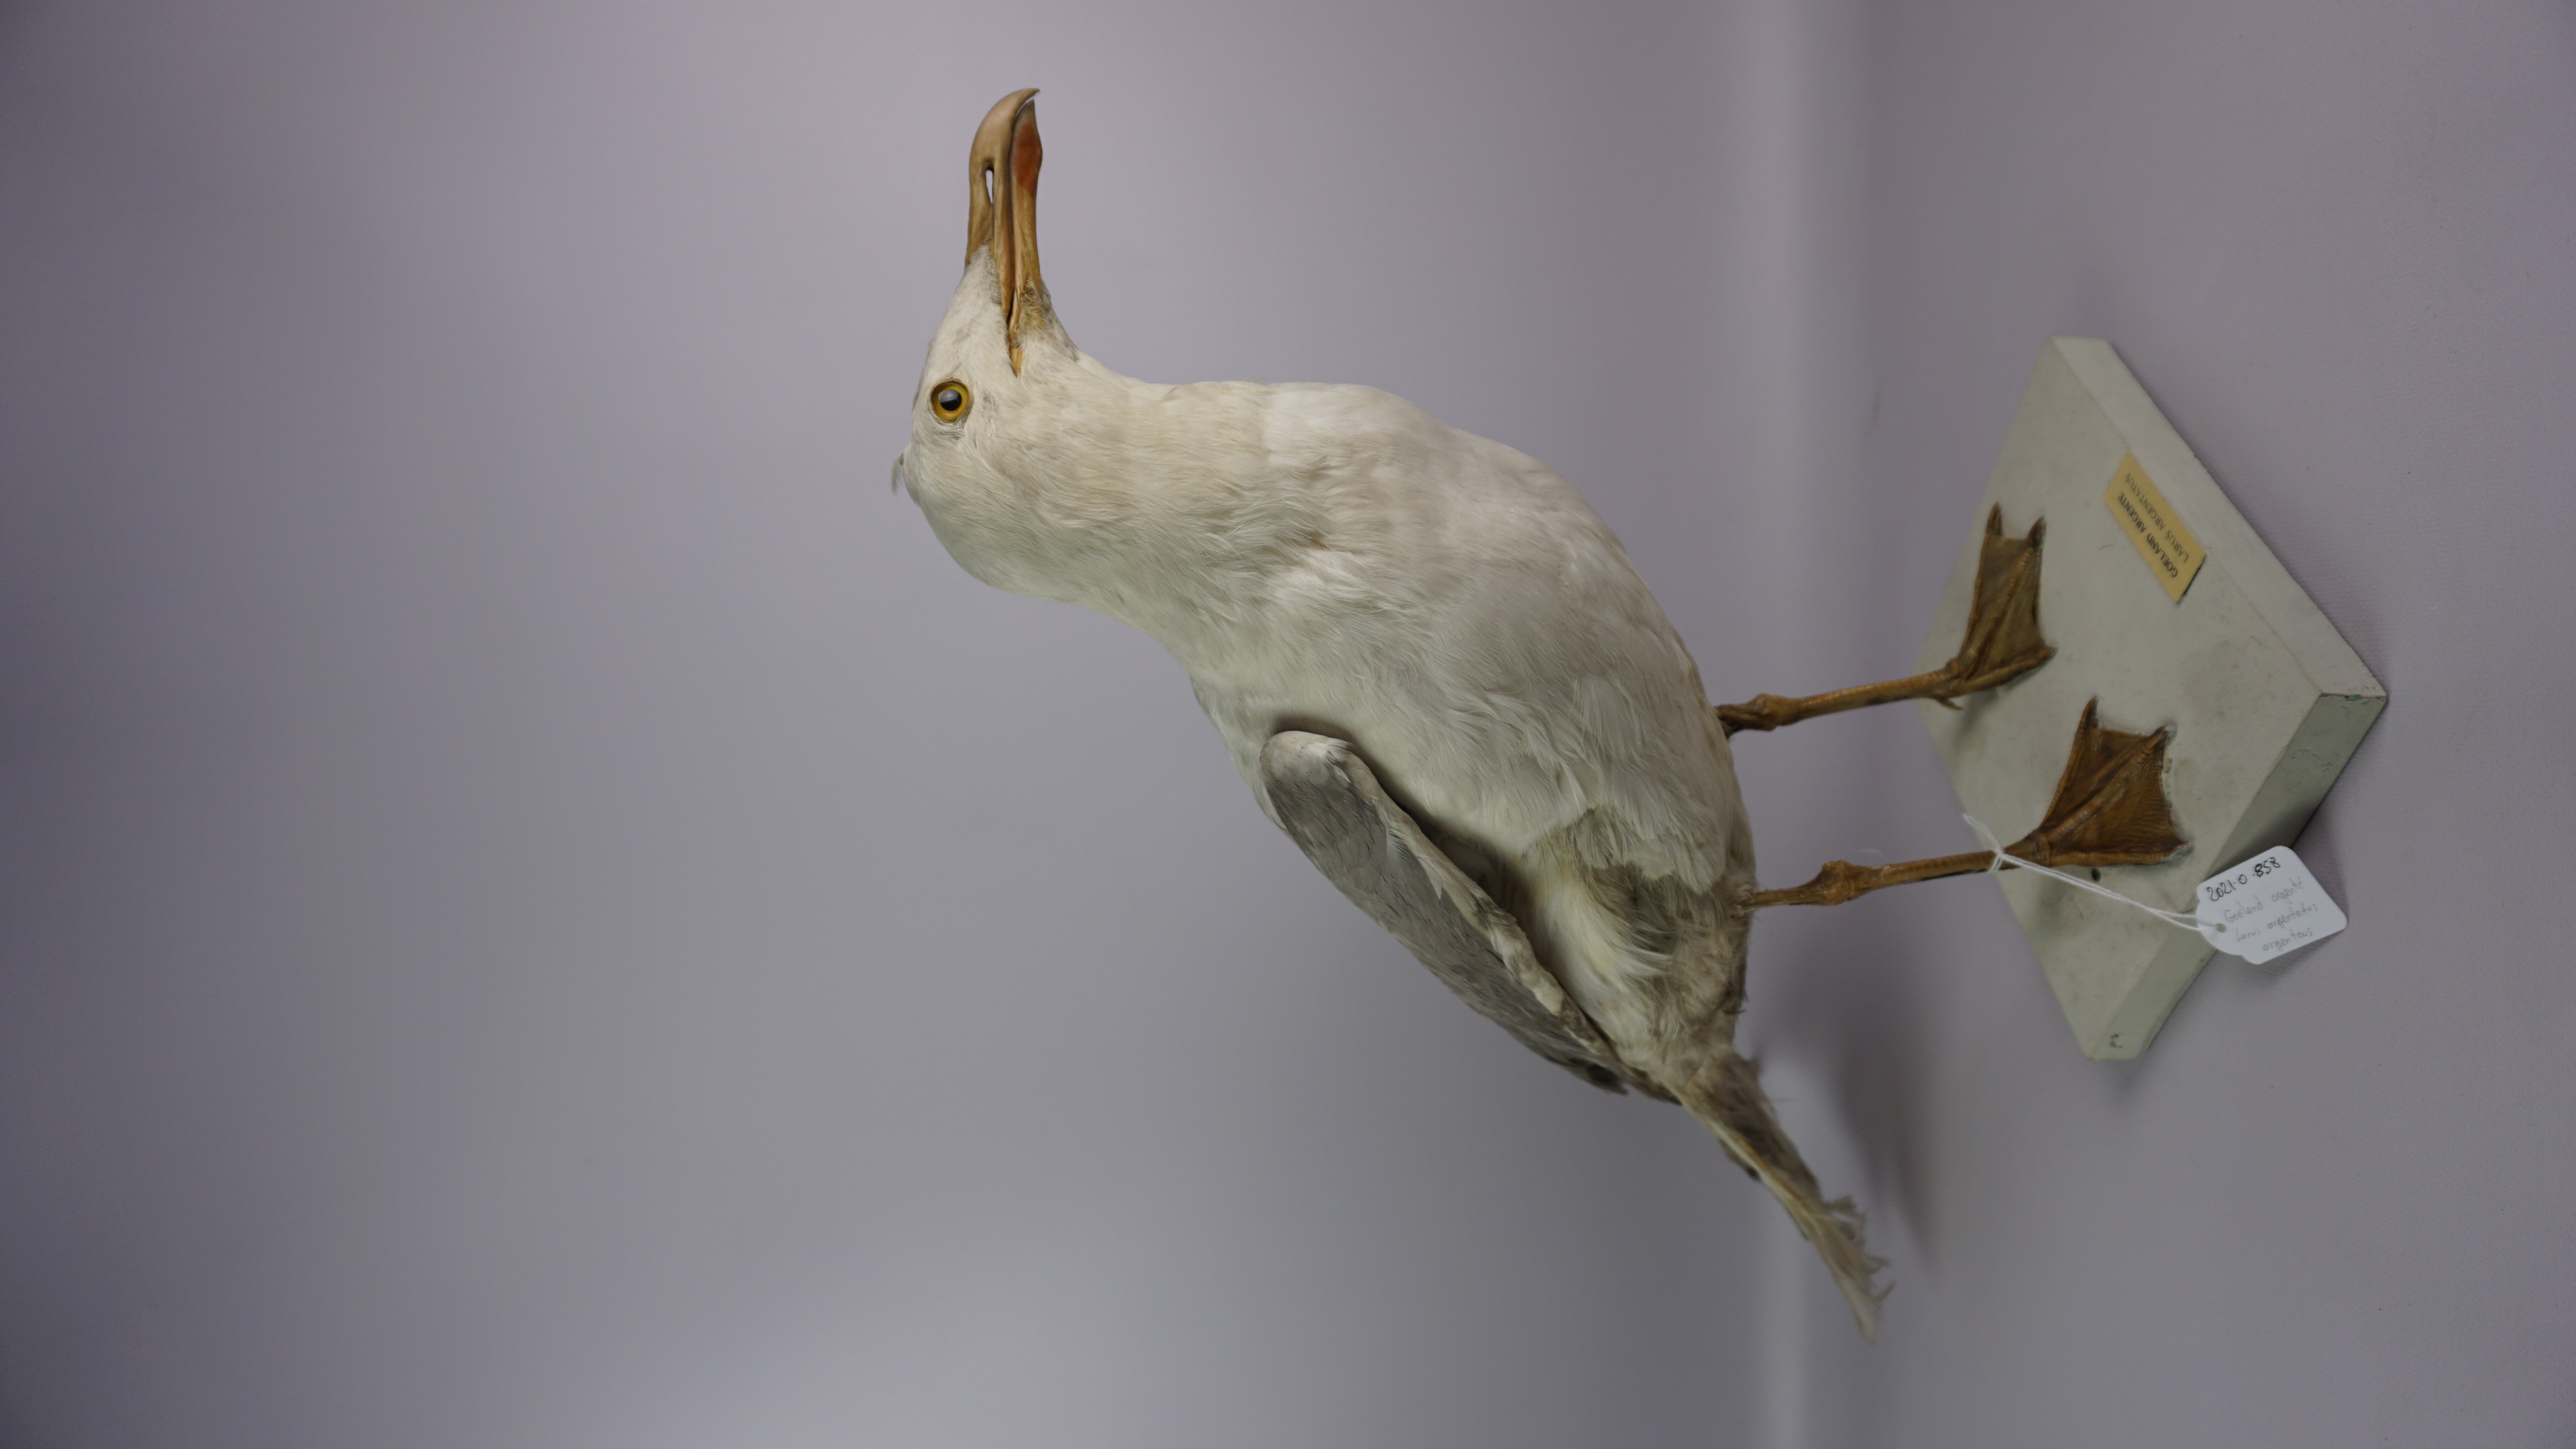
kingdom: Animalia
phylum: Chordata
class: Aves
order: Charadriiformes
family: Laridae
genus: Larus
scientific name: Larus argentatus
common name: Herring gull
